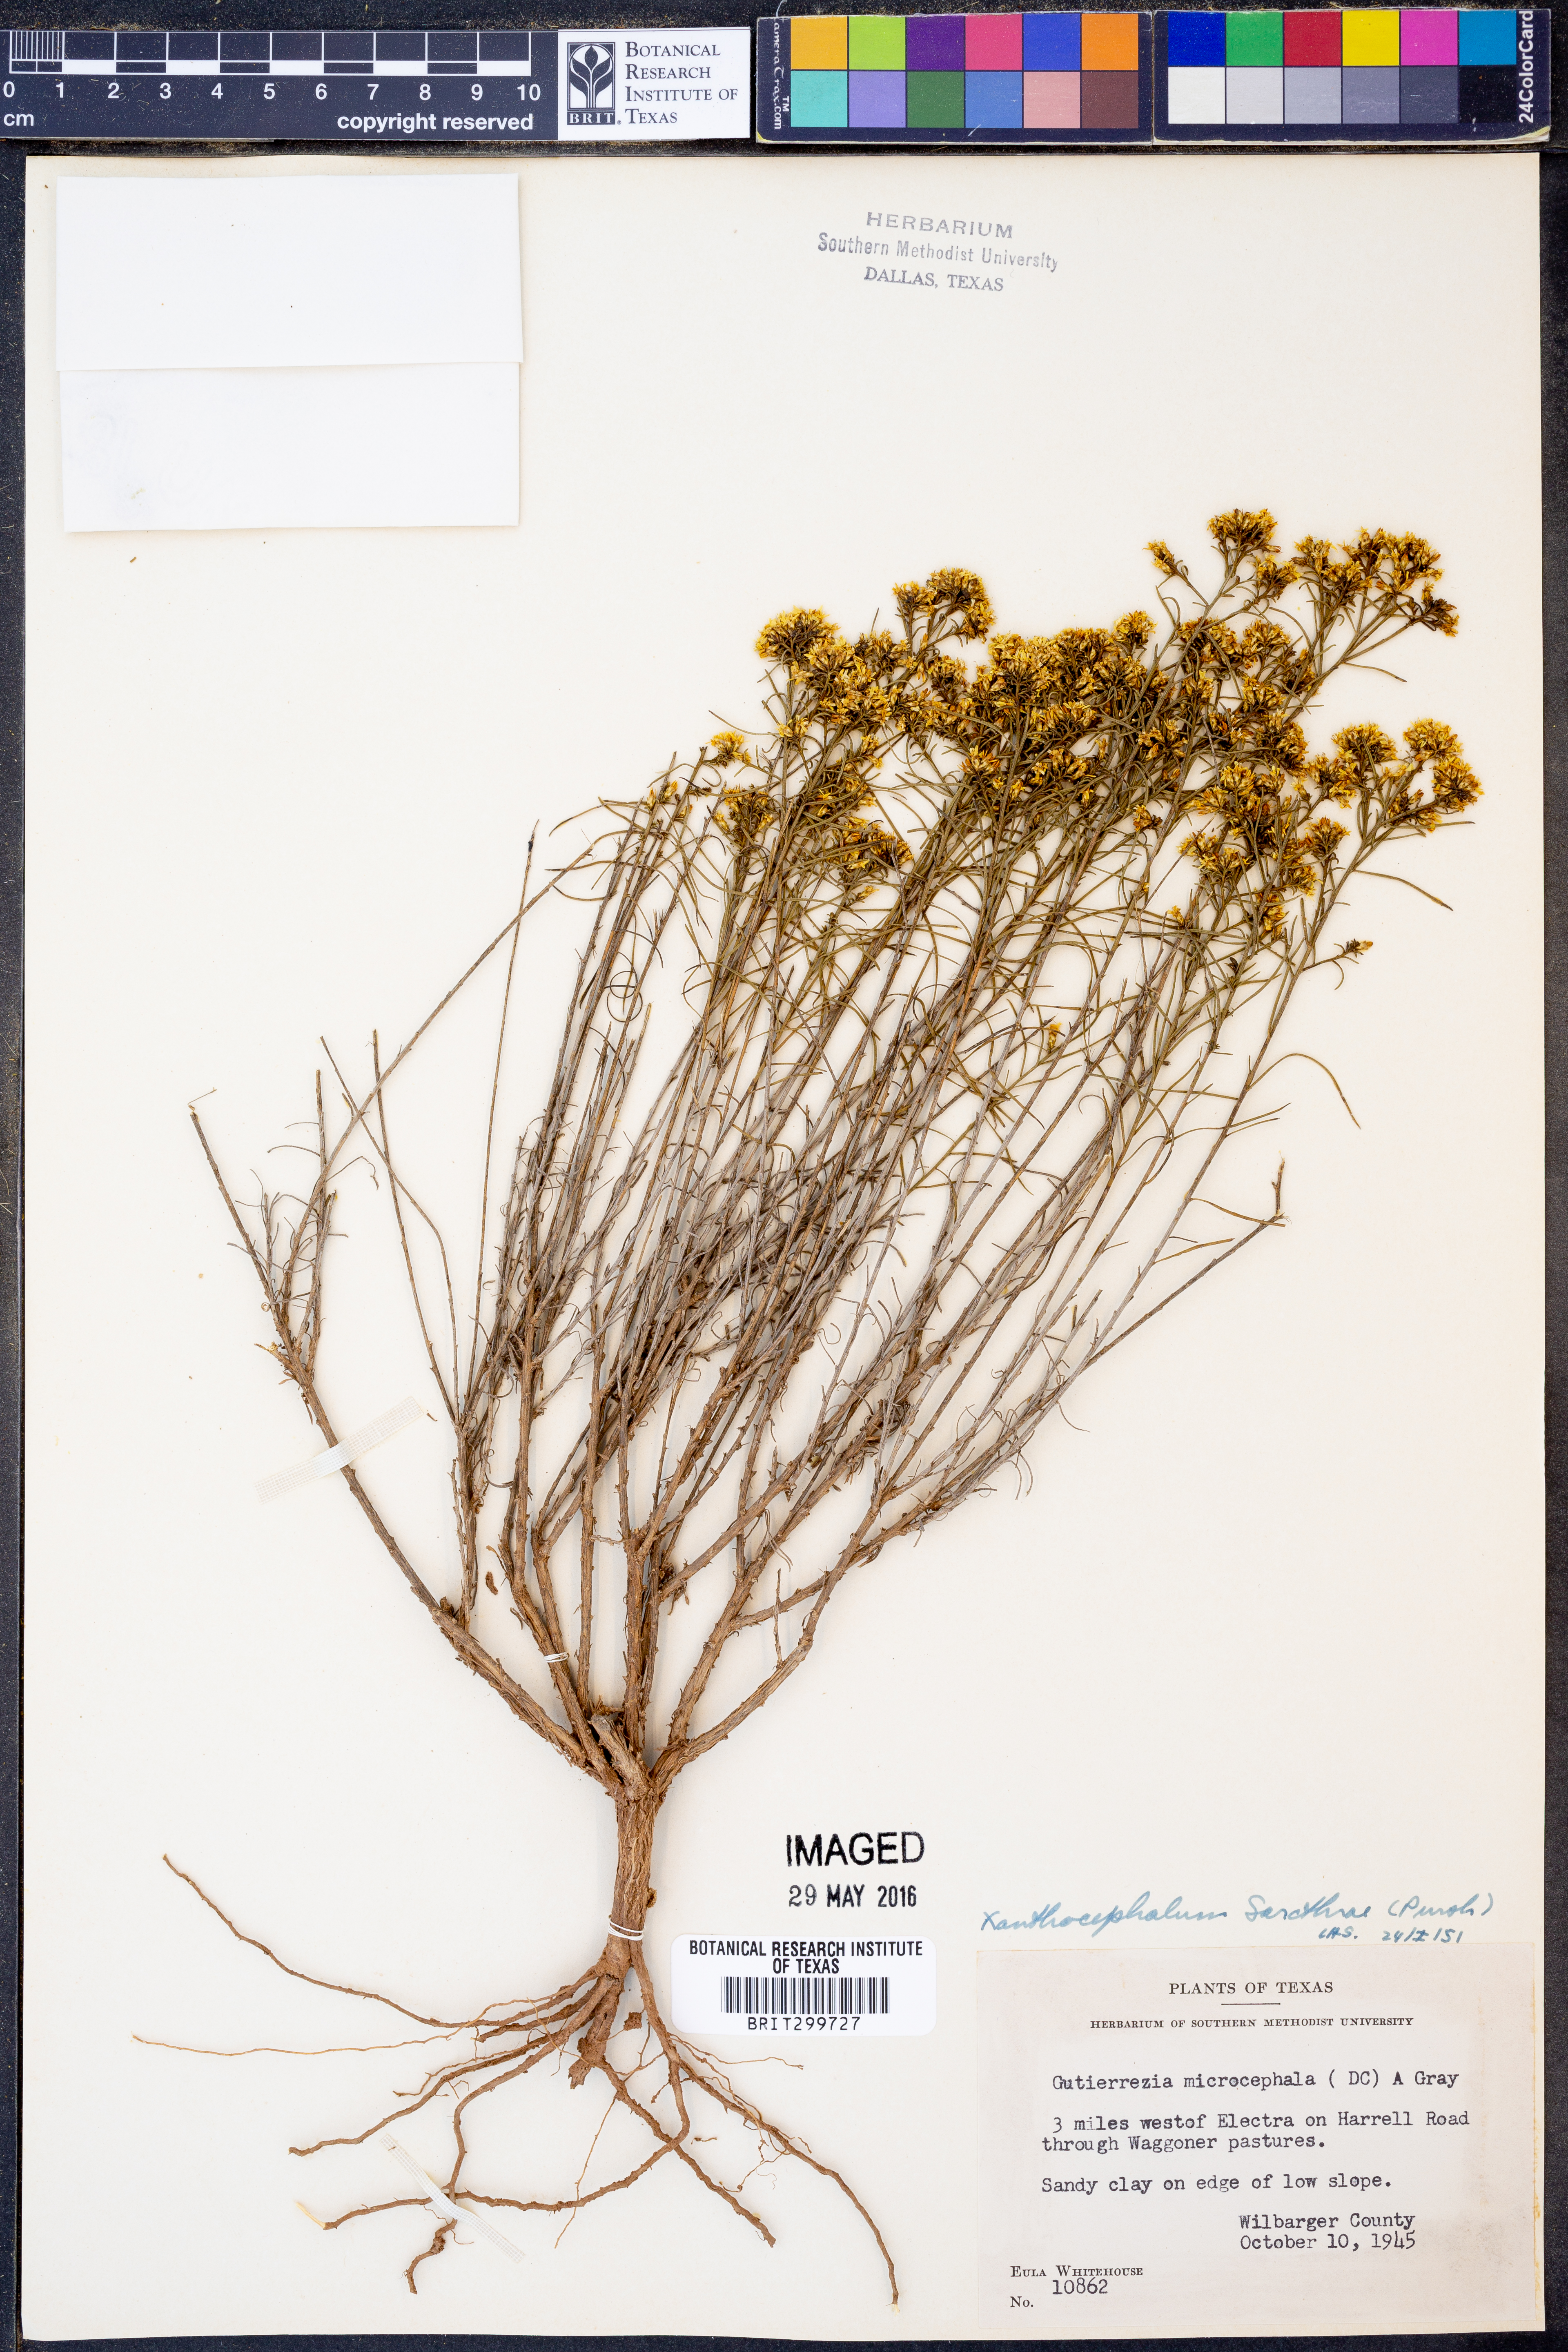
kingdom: Plantae
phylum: Tracheophyta
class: Magnoliopsida
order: Asterales
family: Asteraceae
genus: Gutierrezia
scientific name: Gutierrezia sarothrae
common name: Broom snakeweed
